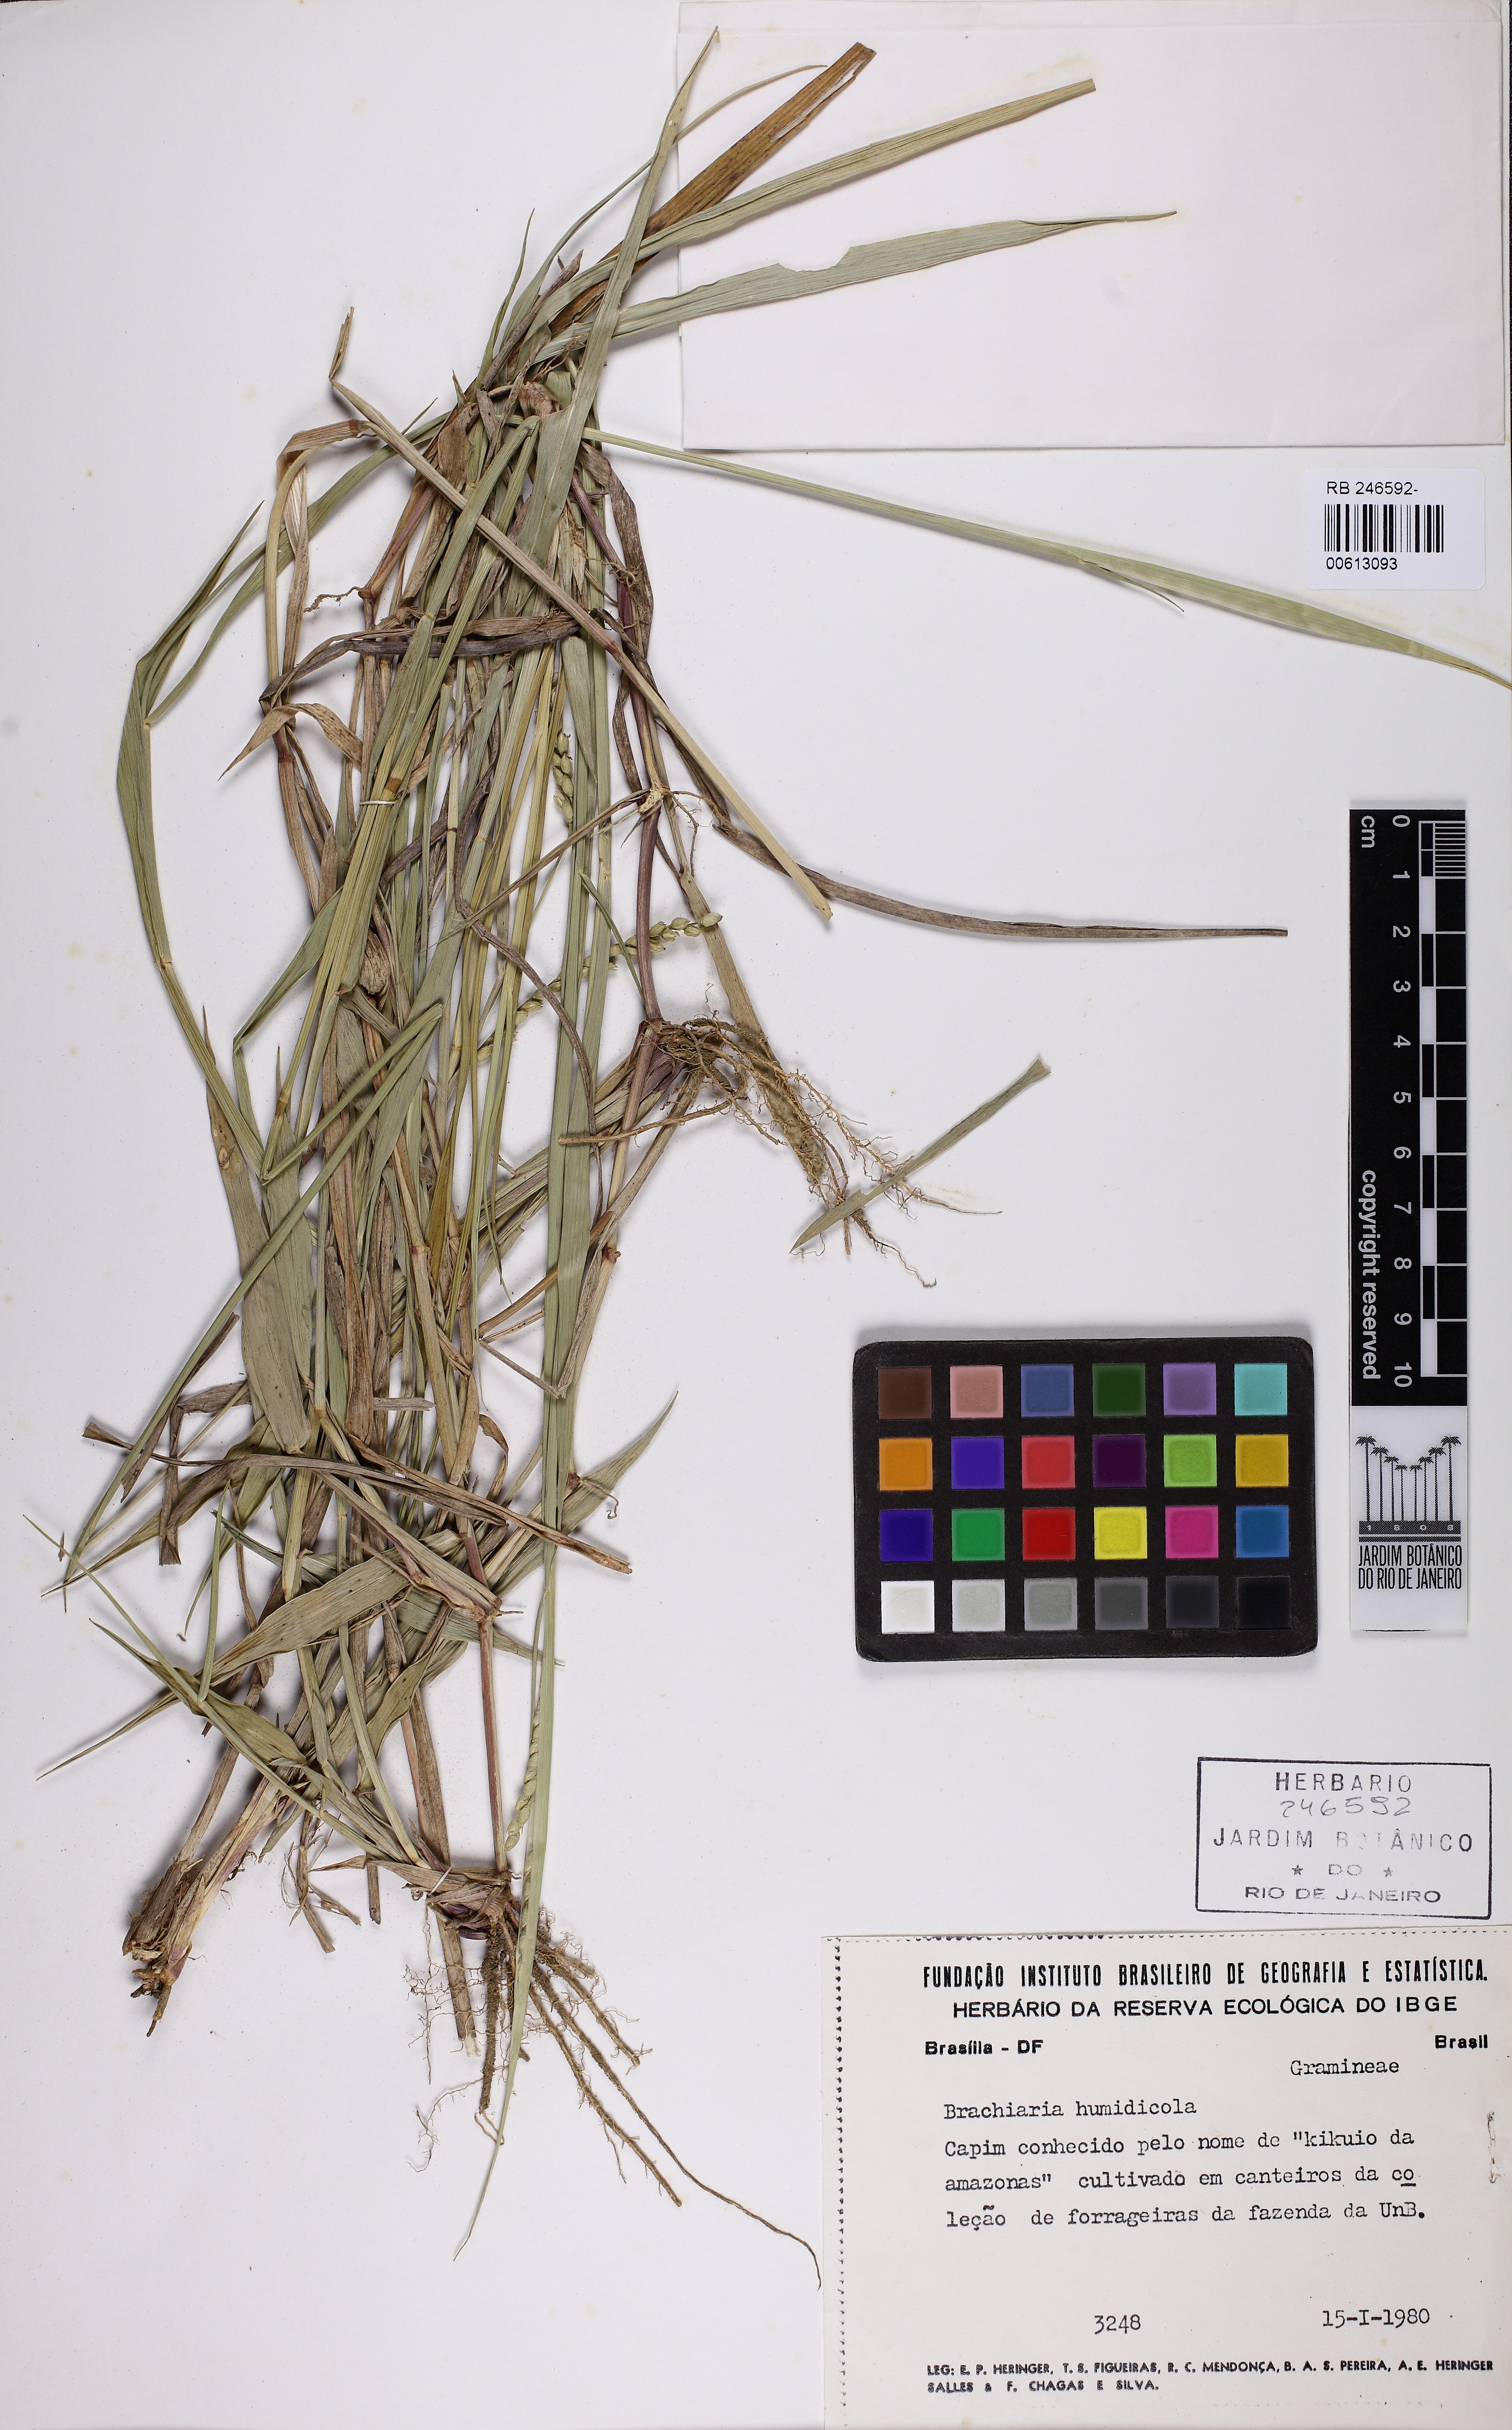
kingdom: Plantae
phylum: Tracheophyta
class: Liliopsida
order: Poales
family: Poaceae
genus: Urochloa
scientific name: Urochloa dictyoneura
